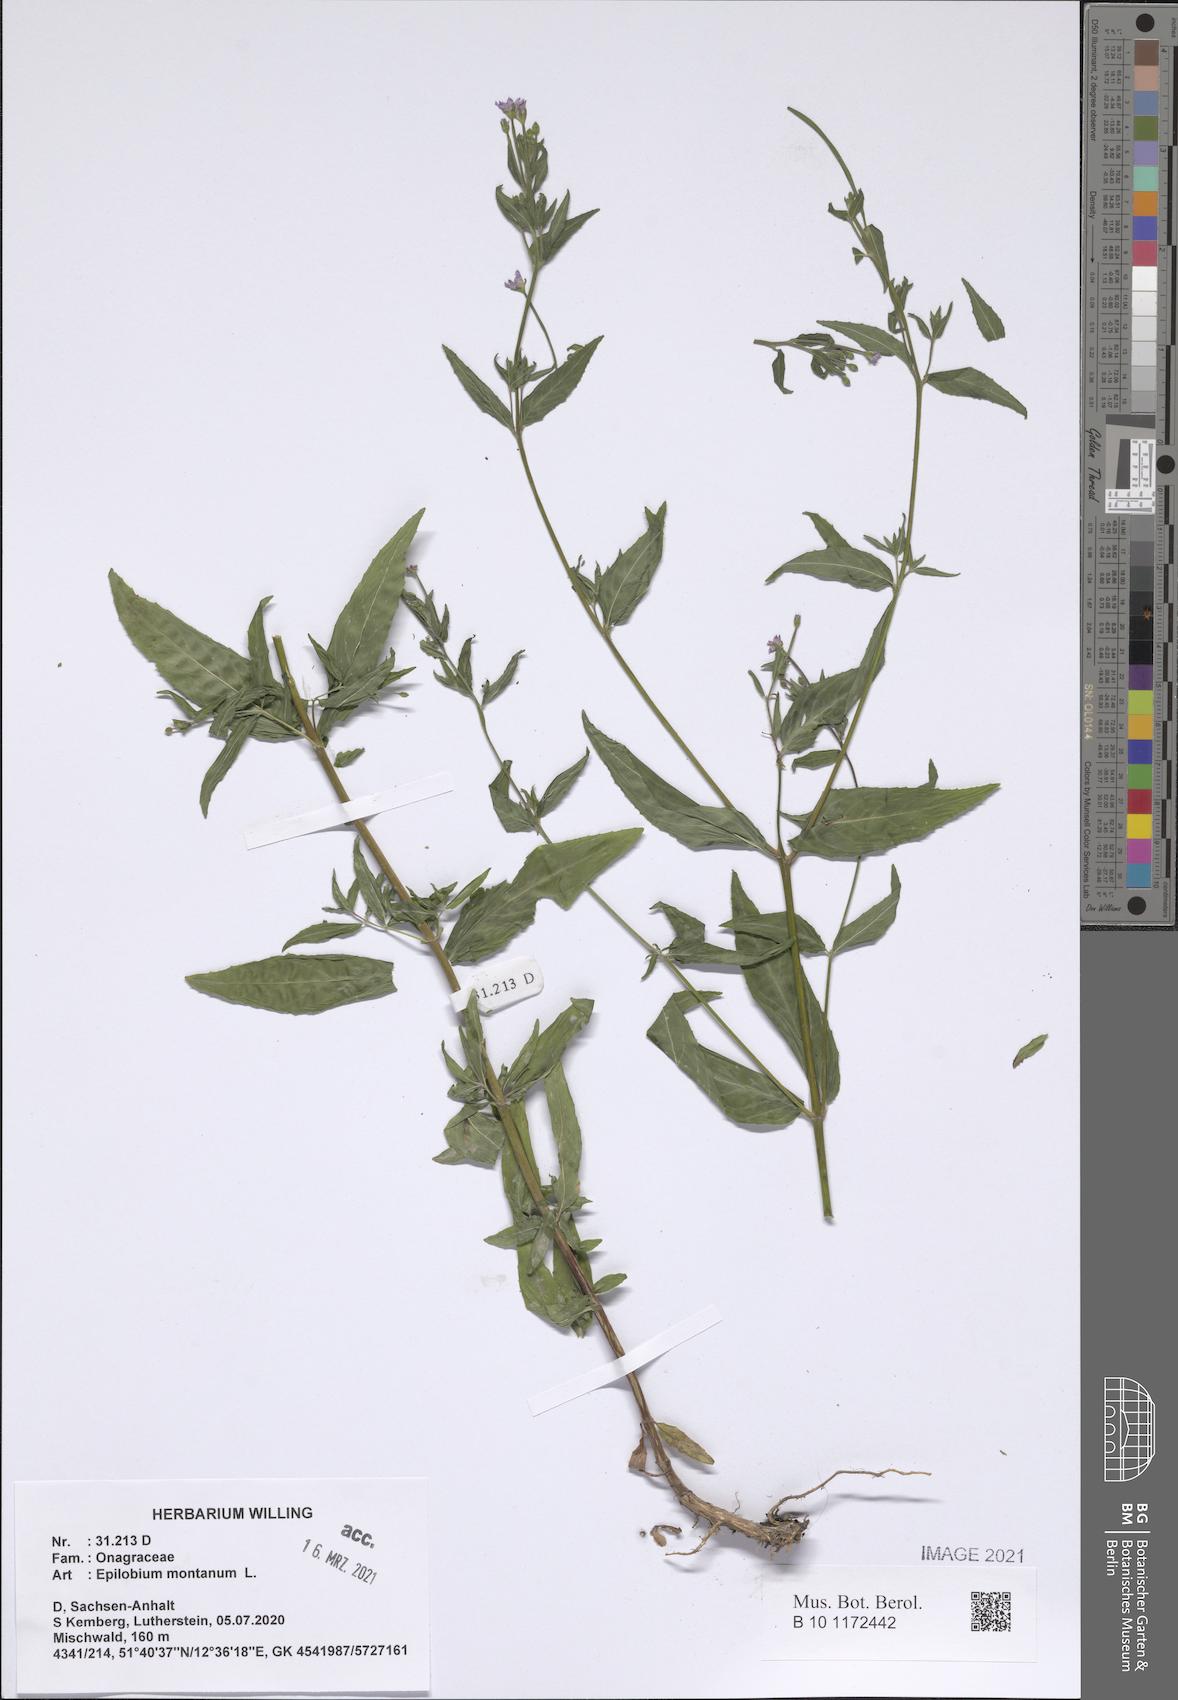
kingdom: Plantae
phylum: Tracheophyta
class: Magnoliopsida
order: Myrtales
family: Onagraceae
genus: Epilobium
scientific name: Epilobium montanum
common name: Broad-leaved willowherb
